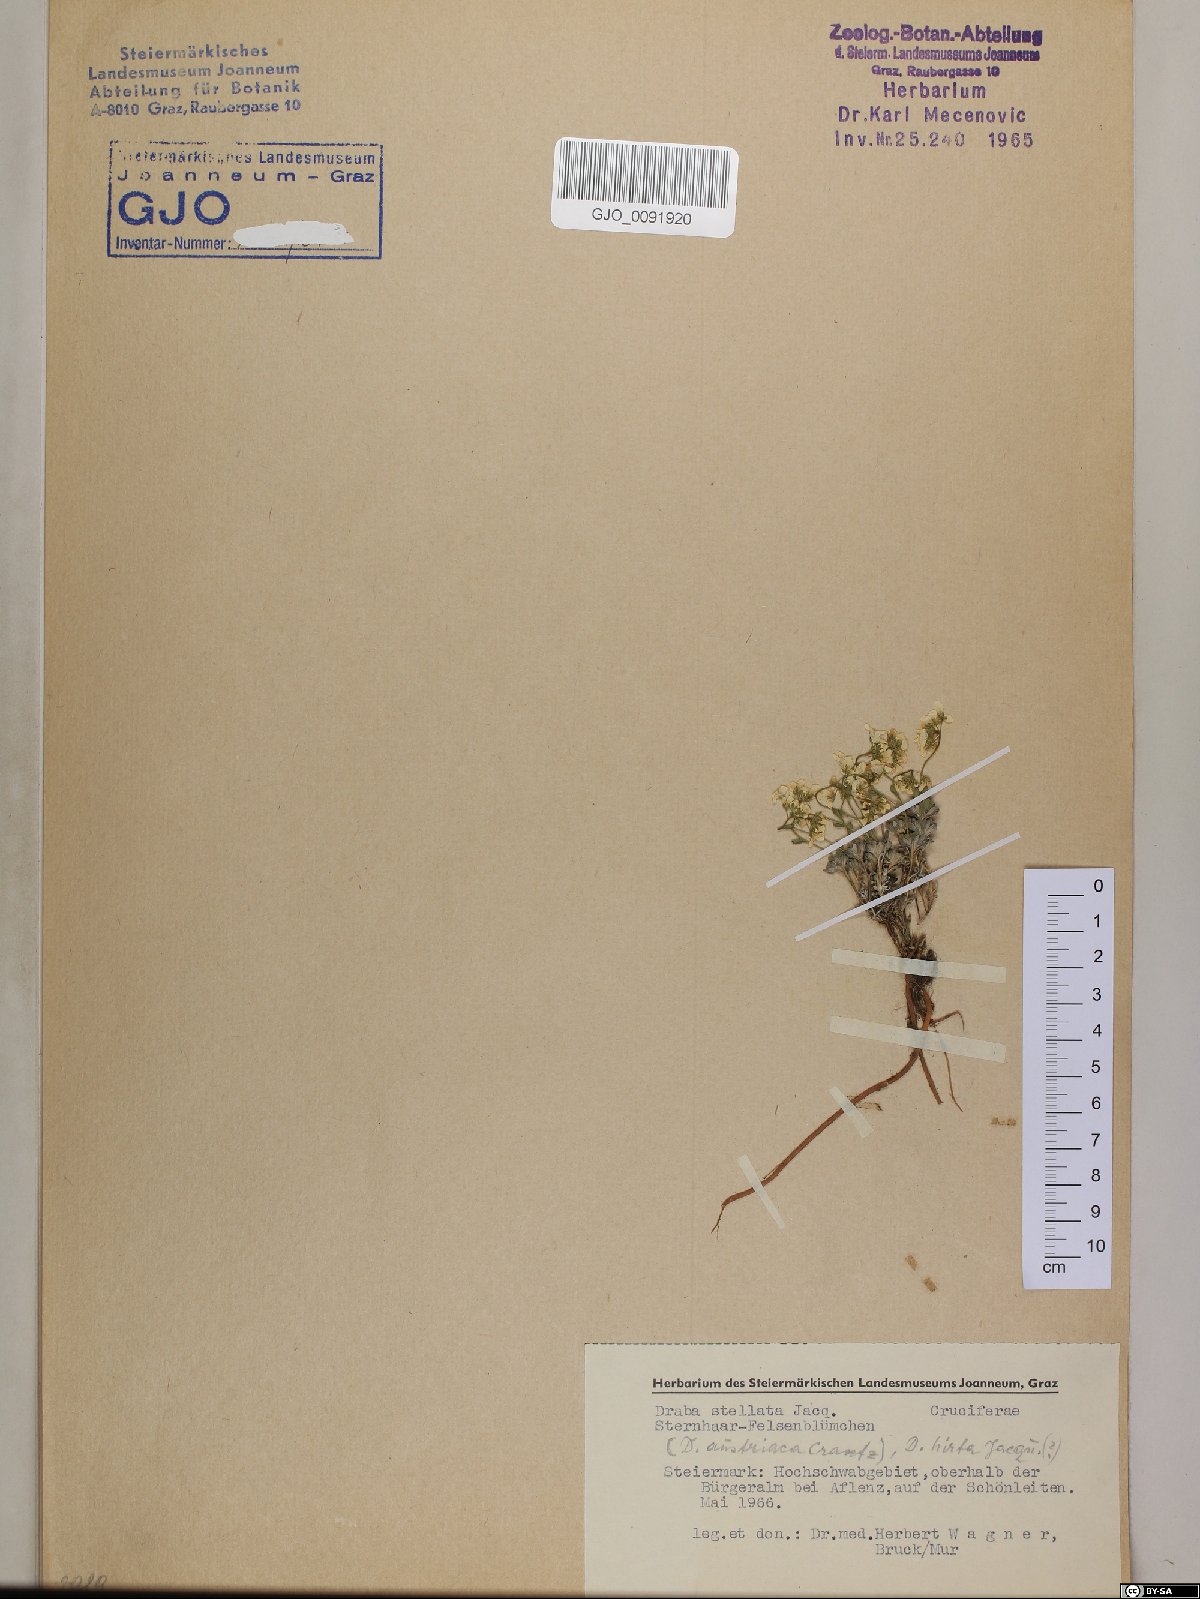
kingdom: Plantae
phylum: Tracheophyta
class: Magnoliopsida
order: Brassicales
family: Brassicaceae
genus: Draba
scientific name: Draba stellata
